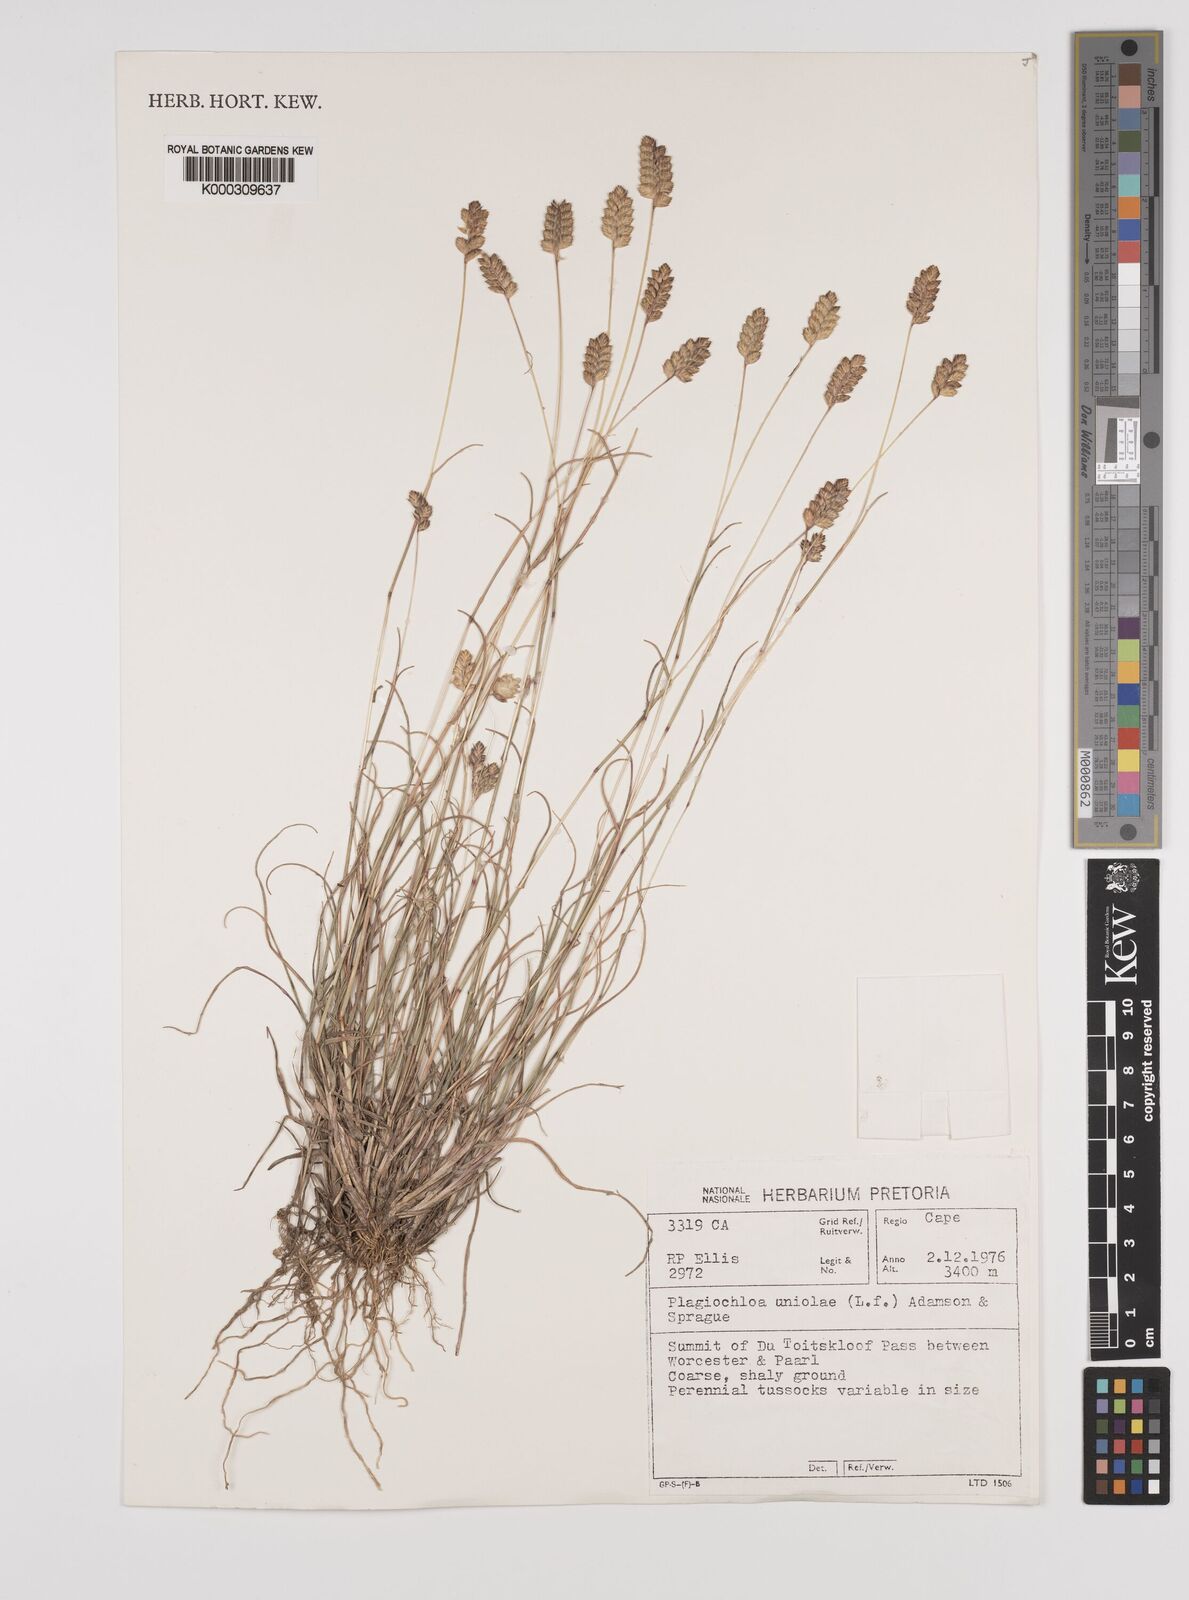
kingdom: Plantae
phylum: Tracheophyta
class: Liliopsida
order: Poales
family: Poaceae
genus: Tribolium
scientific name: Tribolium uniolae
